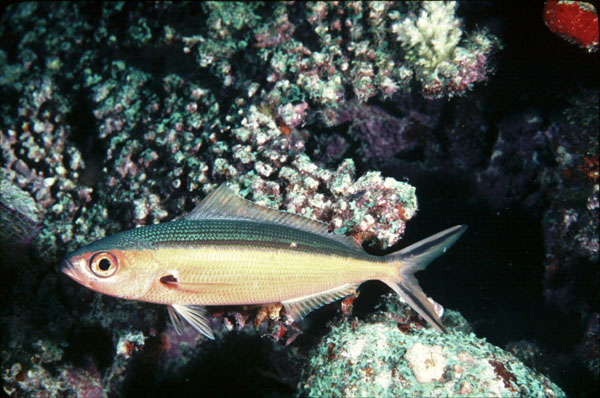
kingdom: Animalia
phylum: Chordata
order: Perciformes
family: Caesionidae
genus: Pterocaesio
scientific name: Pterocaesio tile
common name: Dark-banded fusilier
